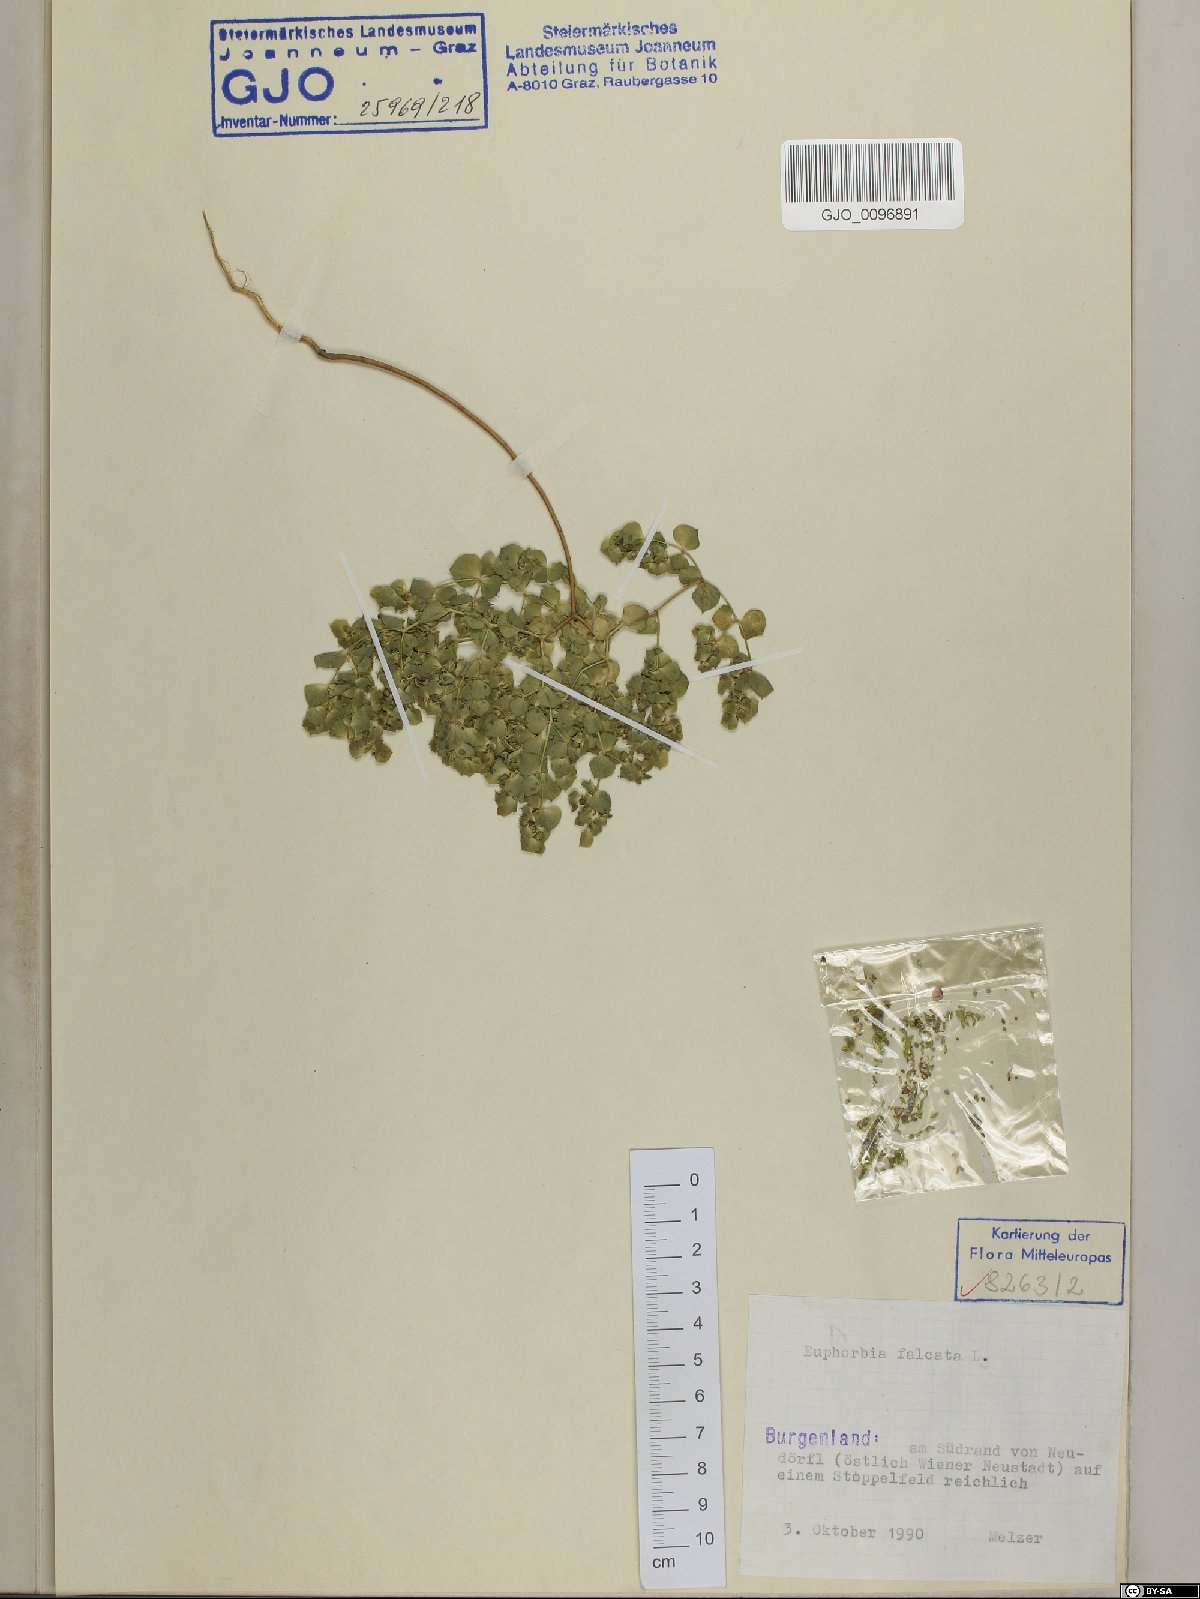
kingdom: Plantae
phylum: Tracheophyta
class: Magnoliopsida
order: Malpighiales
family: Euphorbiaceae
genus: Euphorbia
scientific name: Euphorbia falcata
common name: Sickle spurge
